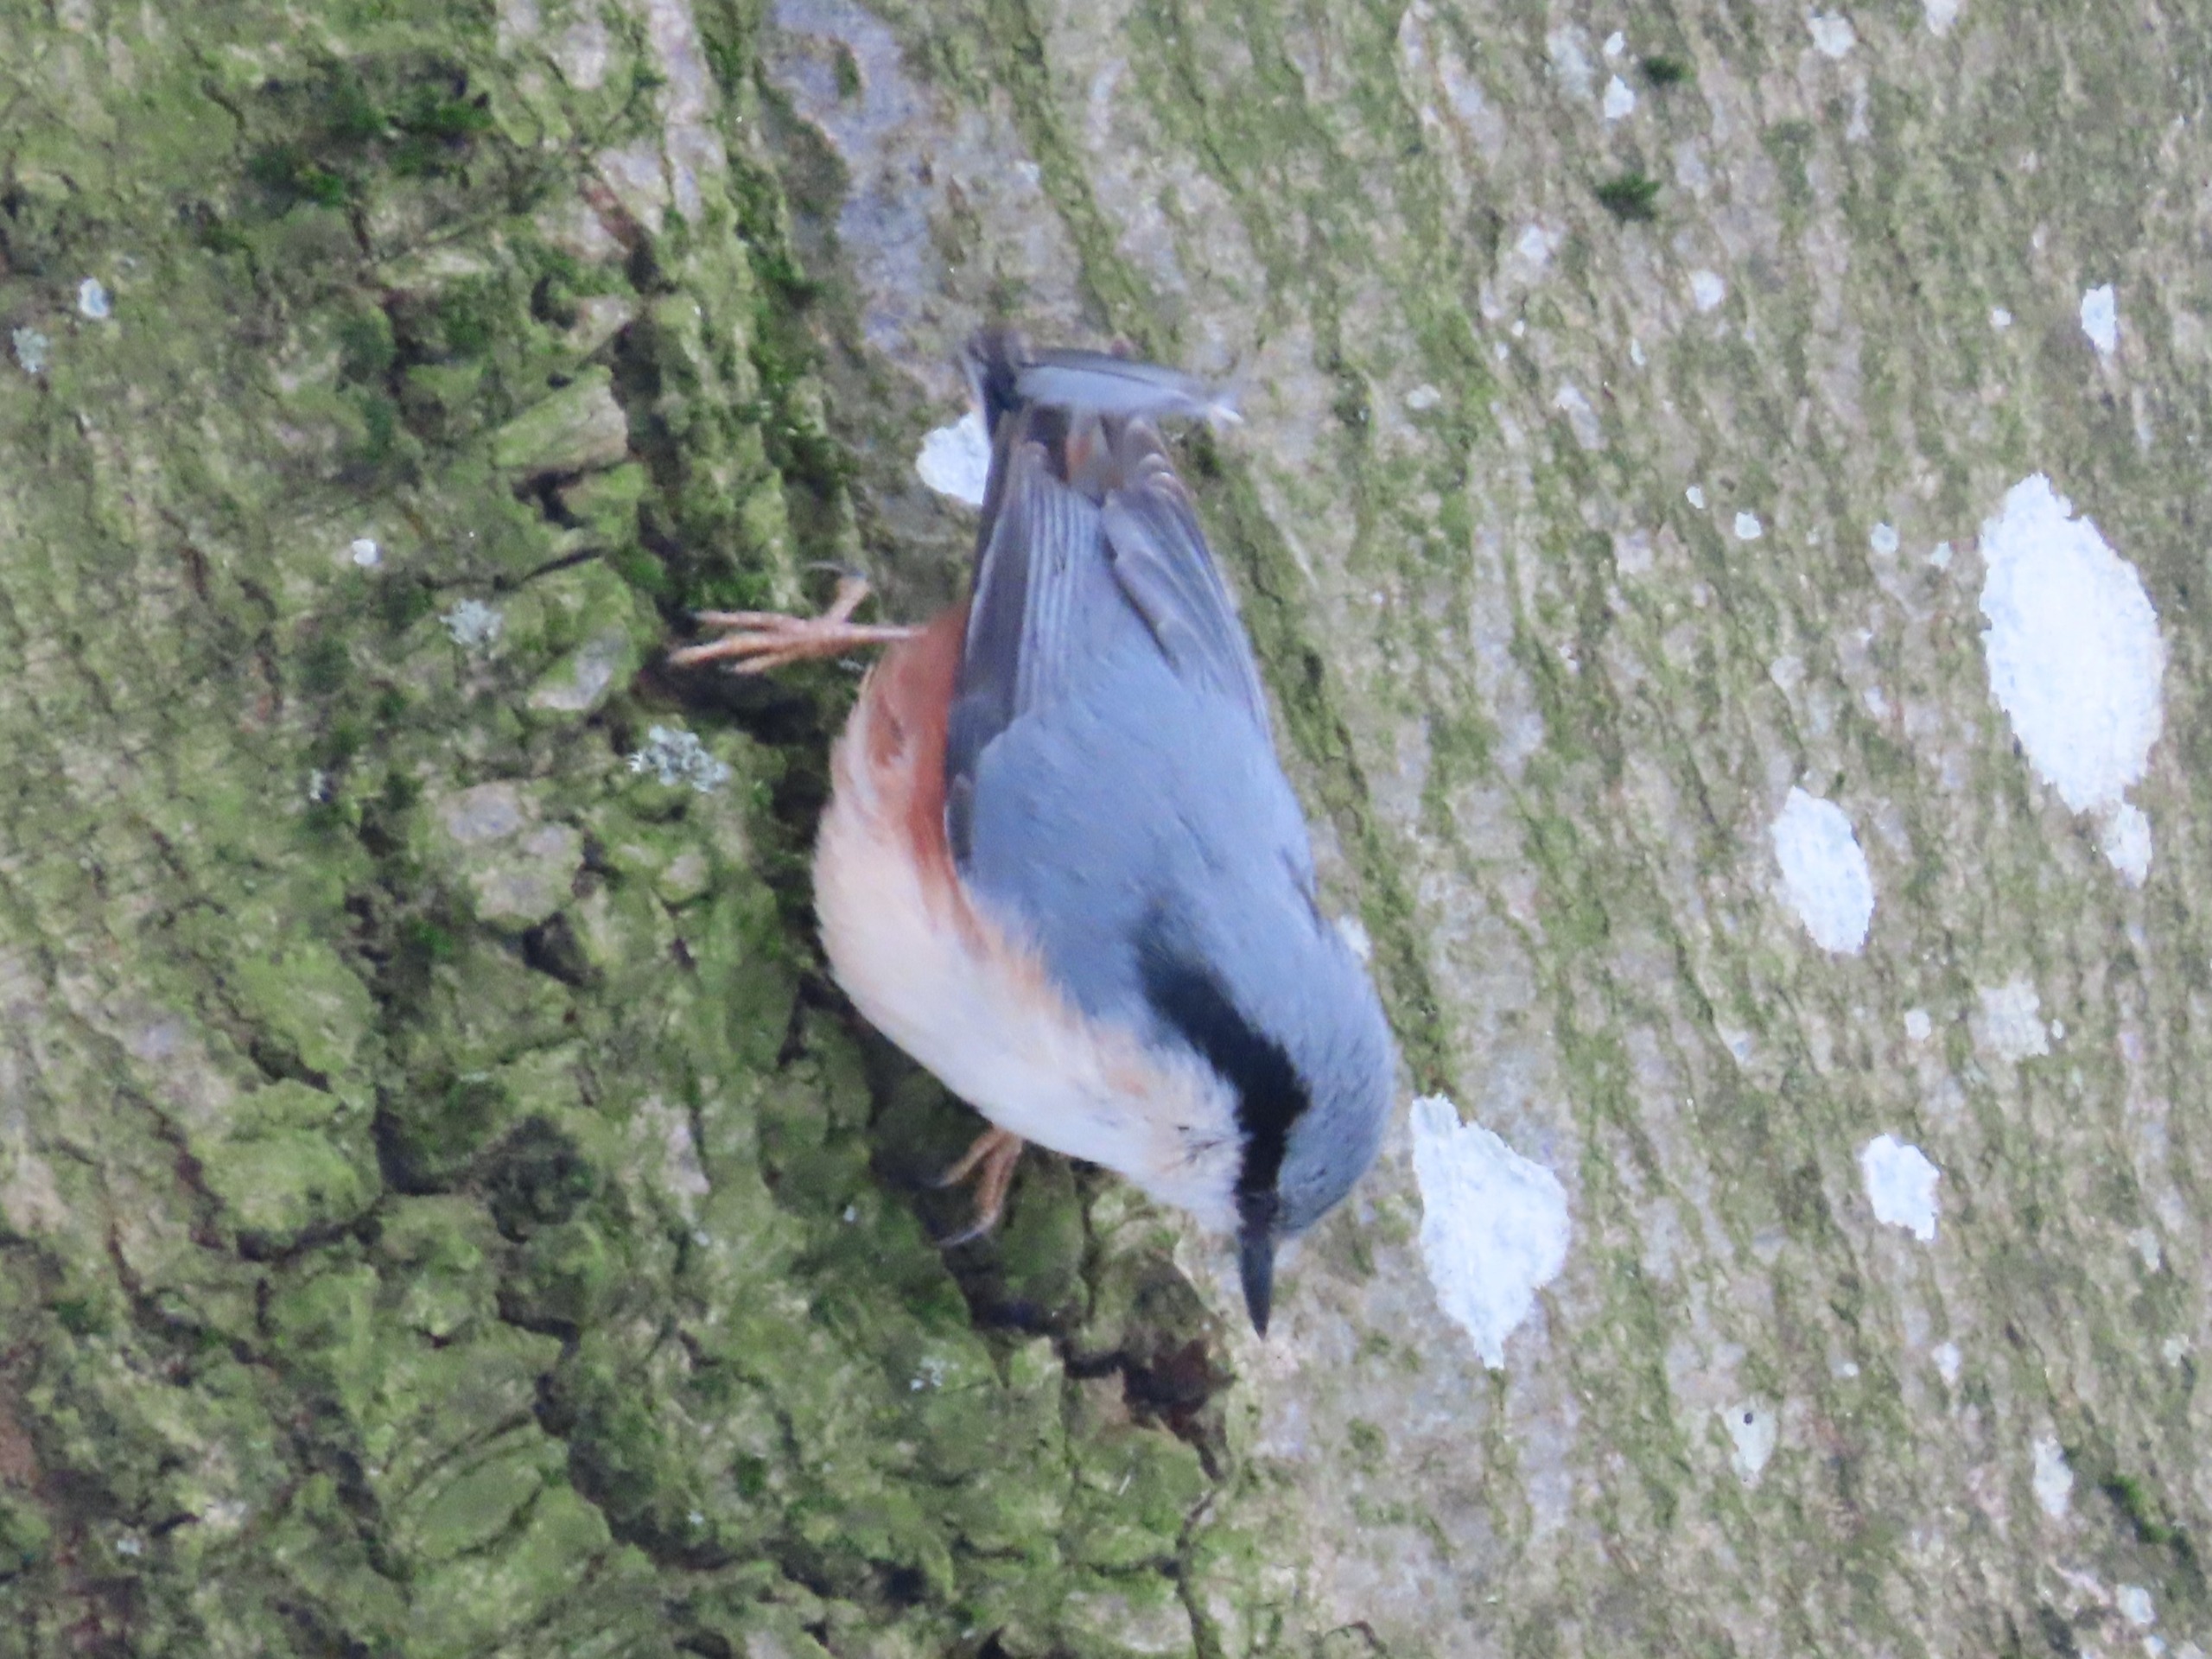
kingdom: Animalia
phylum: Chordata
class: Aves
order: Passeriformes
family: Sittidae
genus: Sitta
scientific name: Sitta europaea
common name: Spætmejse
